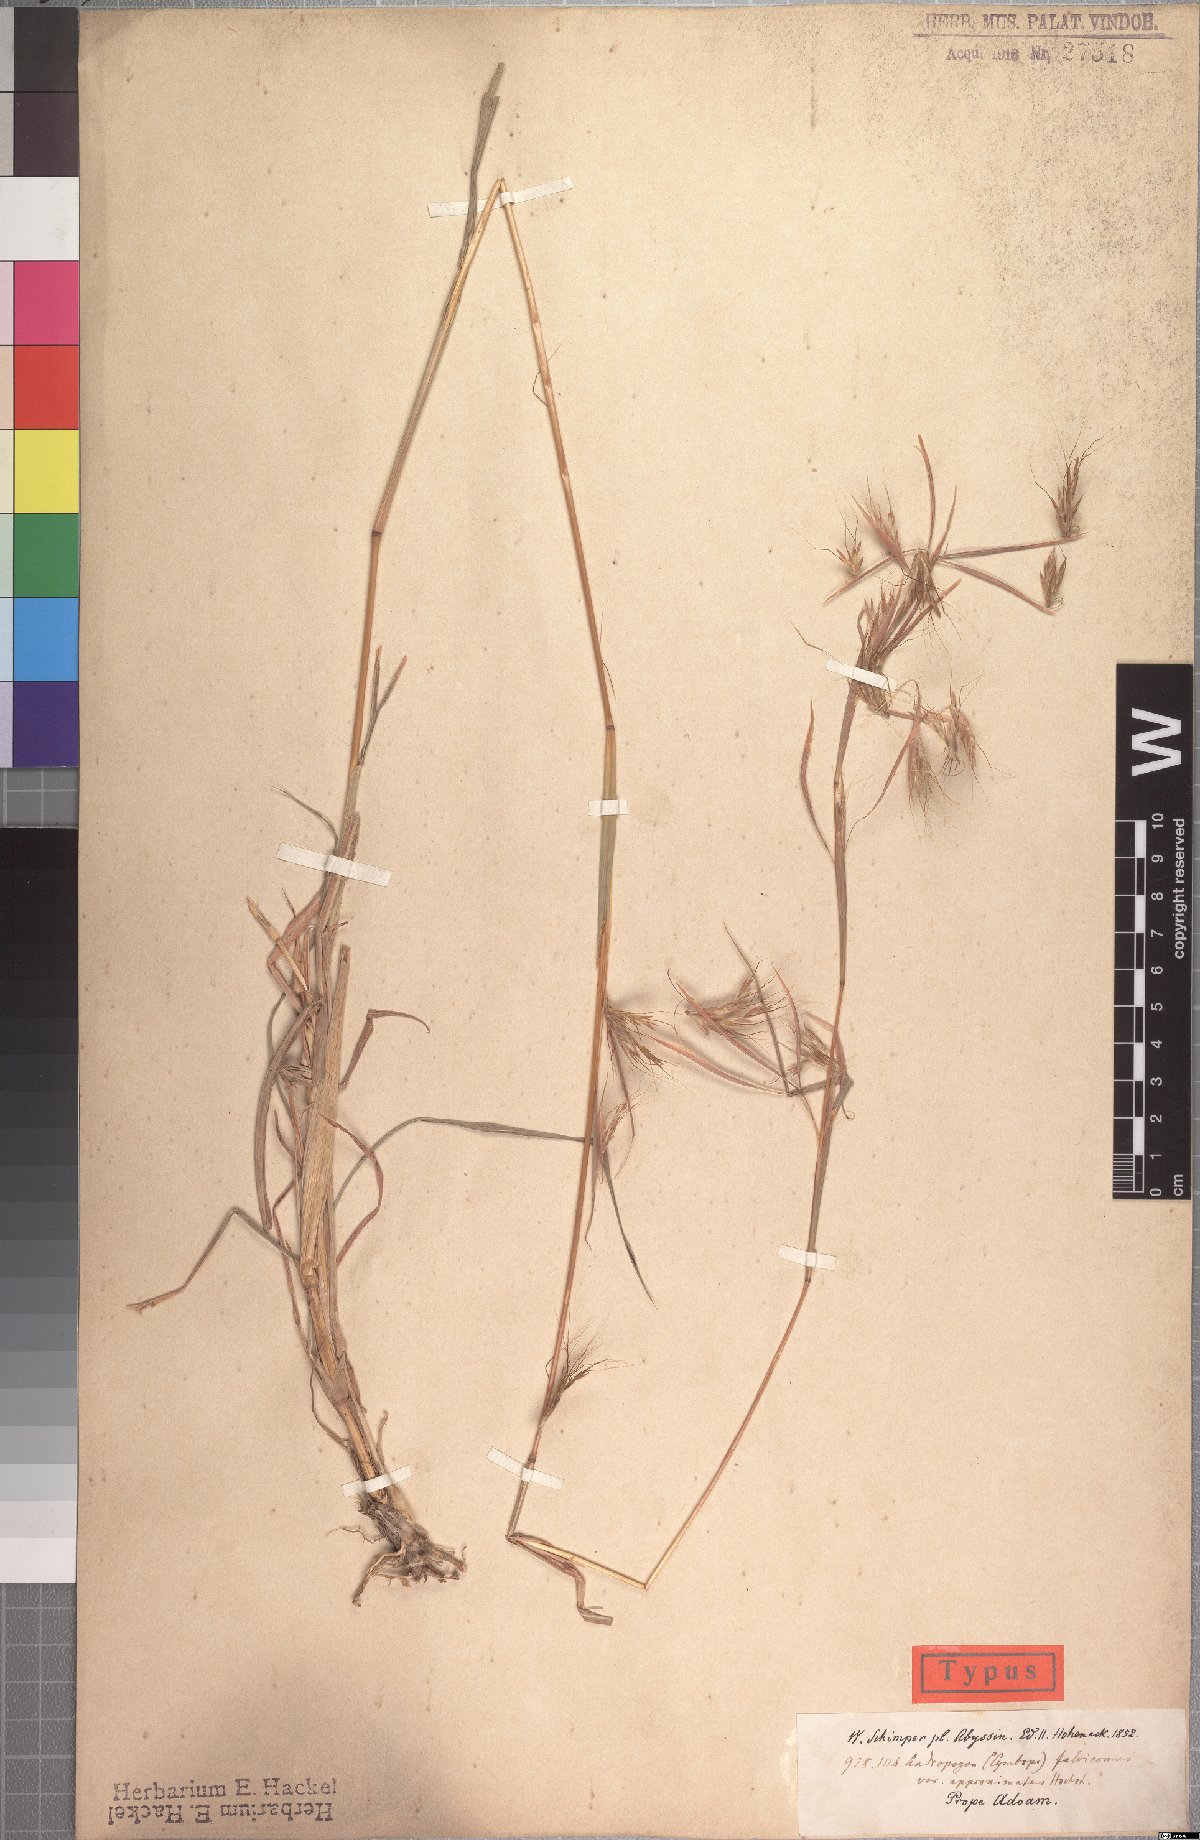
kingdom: Plantae
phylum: Tracheophyta
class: Liliopsida
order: Poales
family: Poaceae
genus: Hyparrhenia
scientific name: Hyparrhenia rufa
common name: Jaraguagrass
